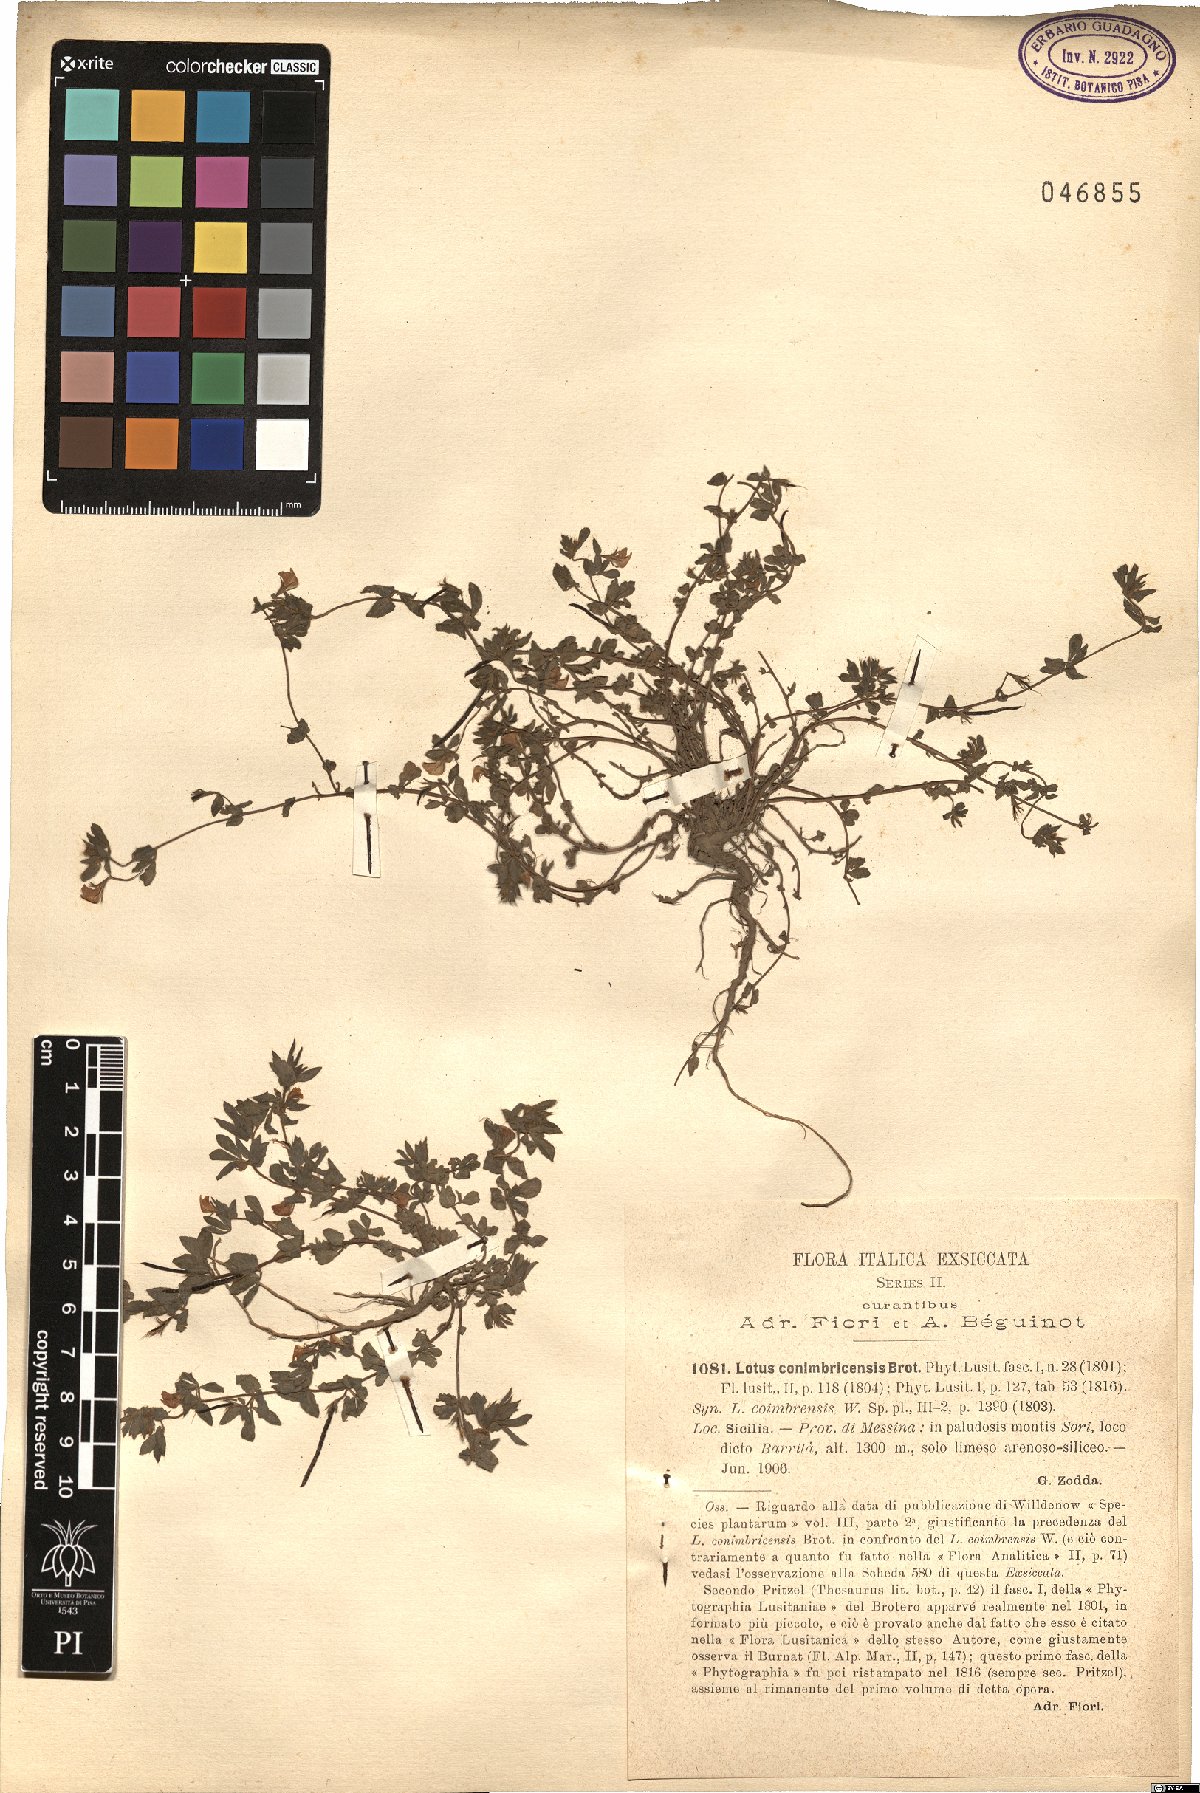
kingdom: Plantae
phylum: Tracheophyta
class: Magnoliopsida
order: Fabales
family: Fabaceae
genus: Lotus
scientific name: Lotus conimbricensis
